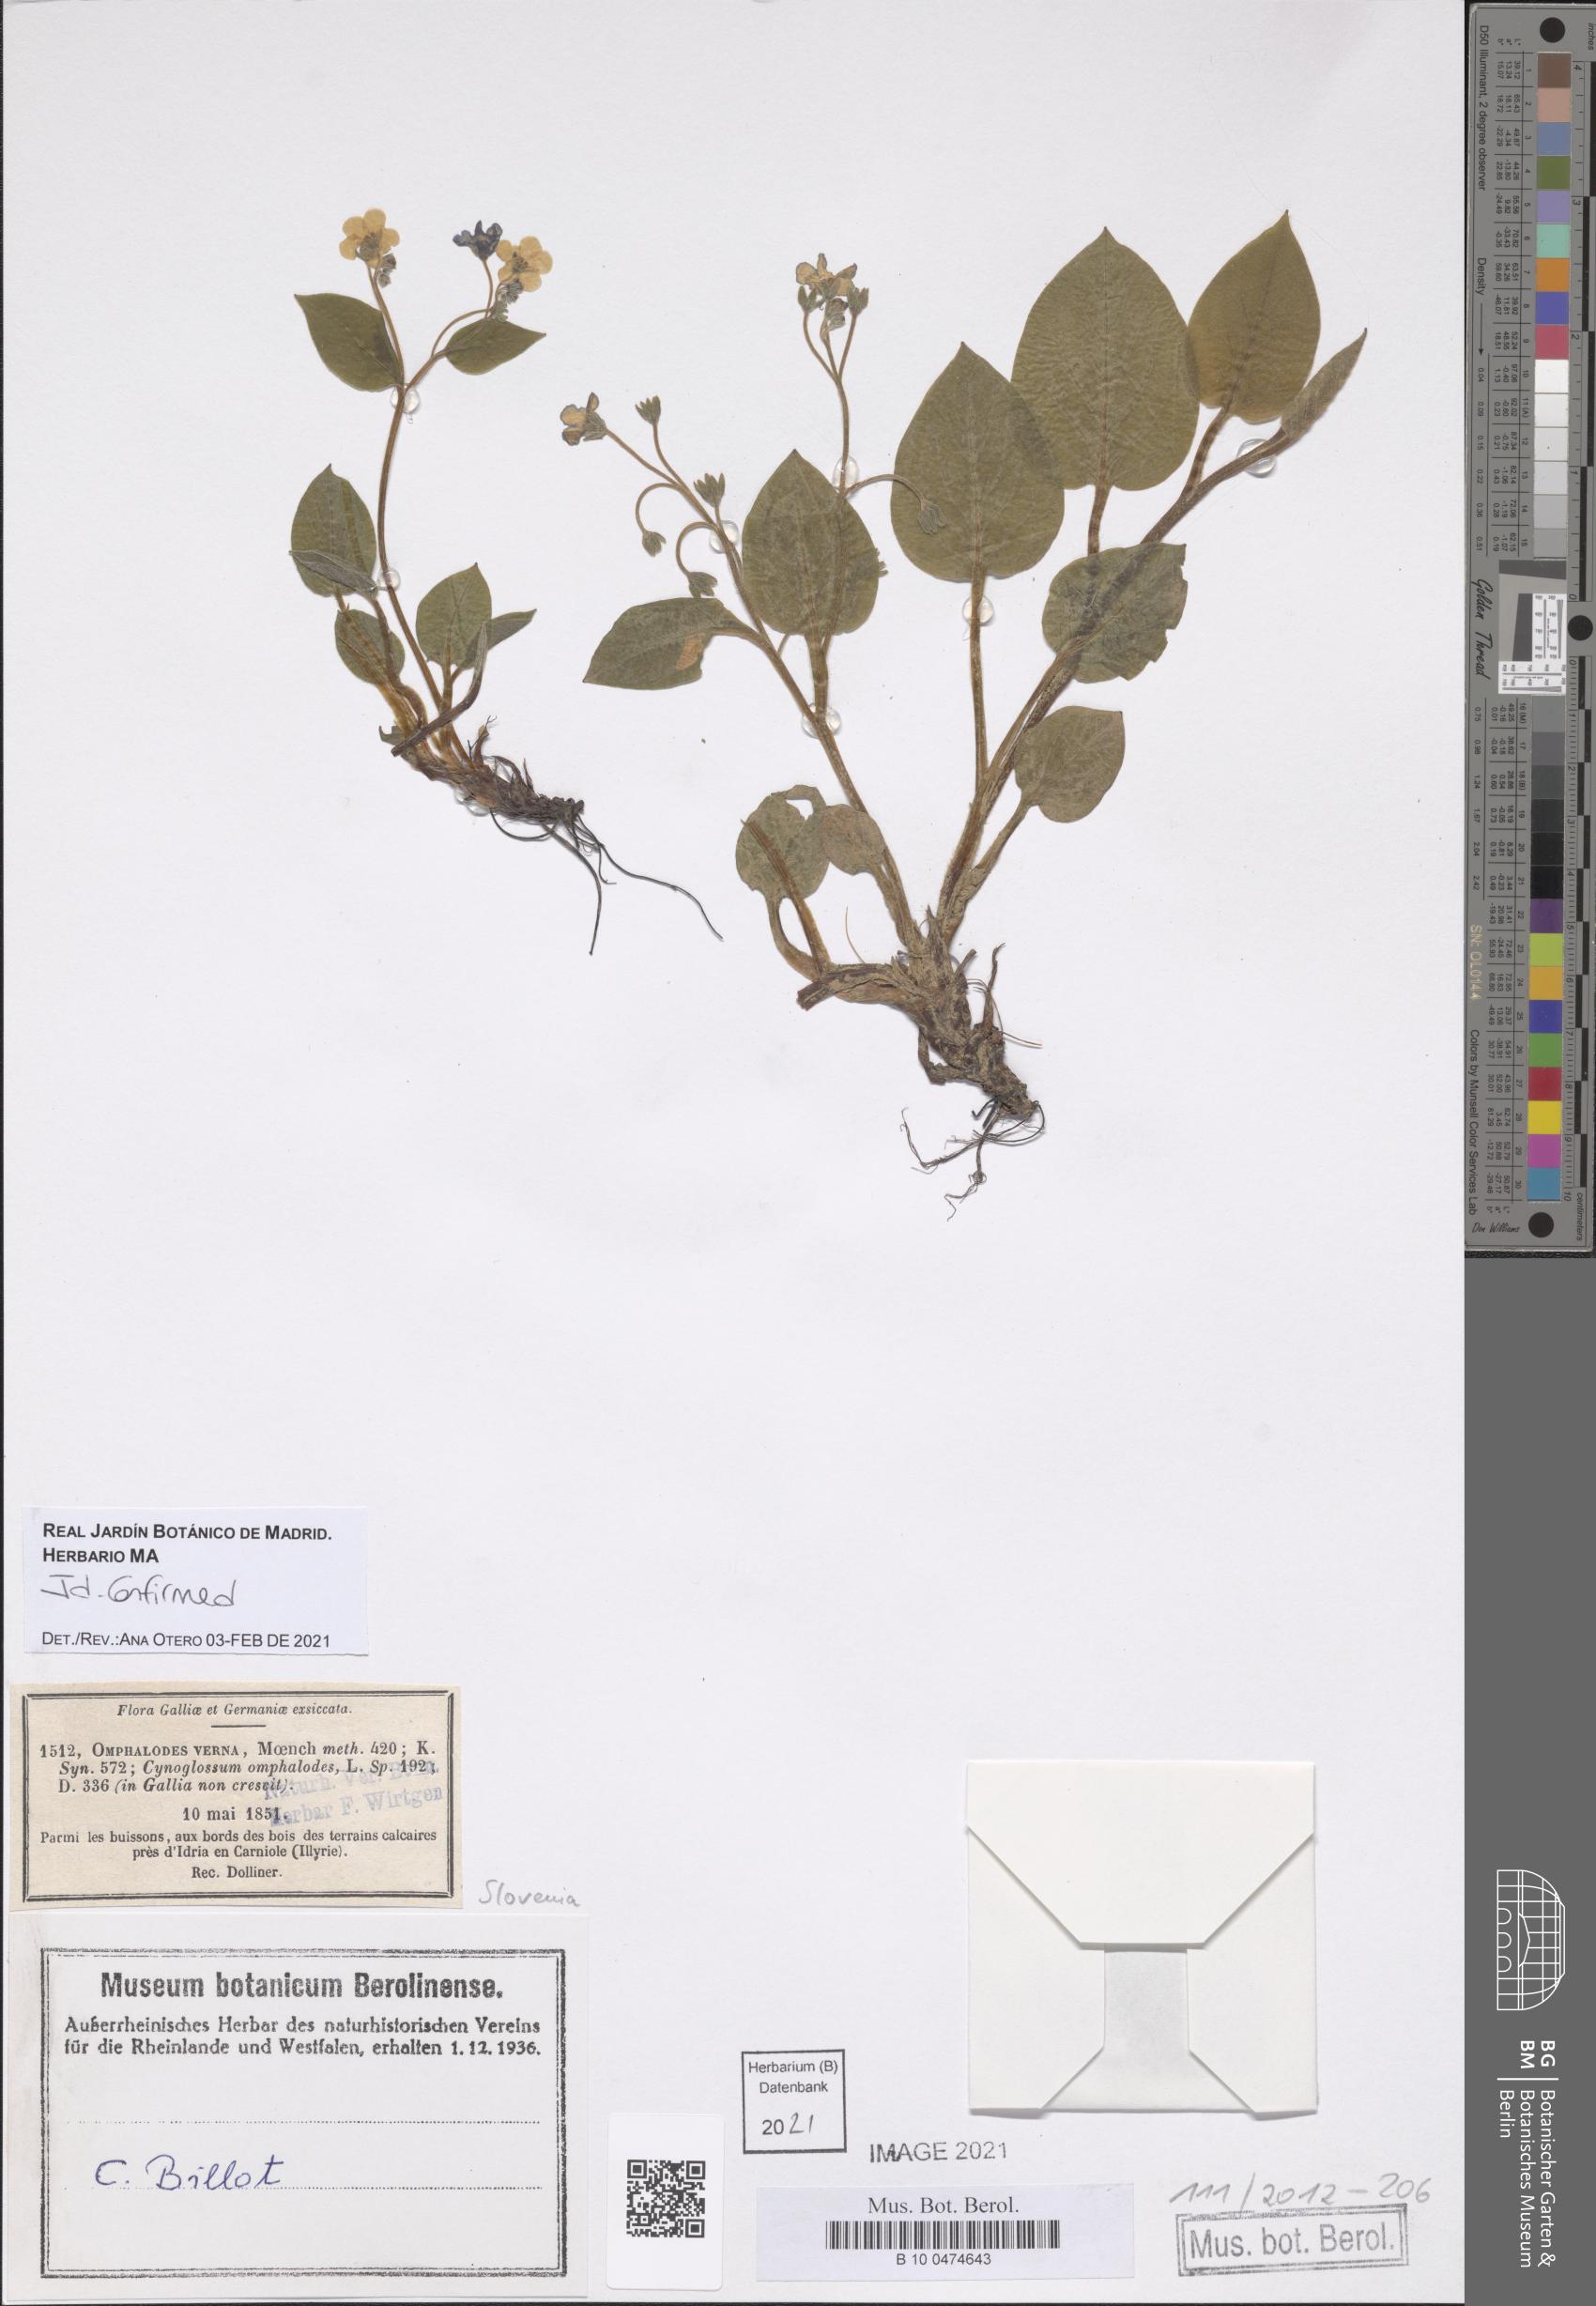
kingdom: Plantae
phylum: Tracheophyta
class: Magnoliopsida
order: Boraginales
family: Boraginaceae
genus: Omphalodes
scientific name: Omphalodes verna
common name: Blue-eyed-mary
